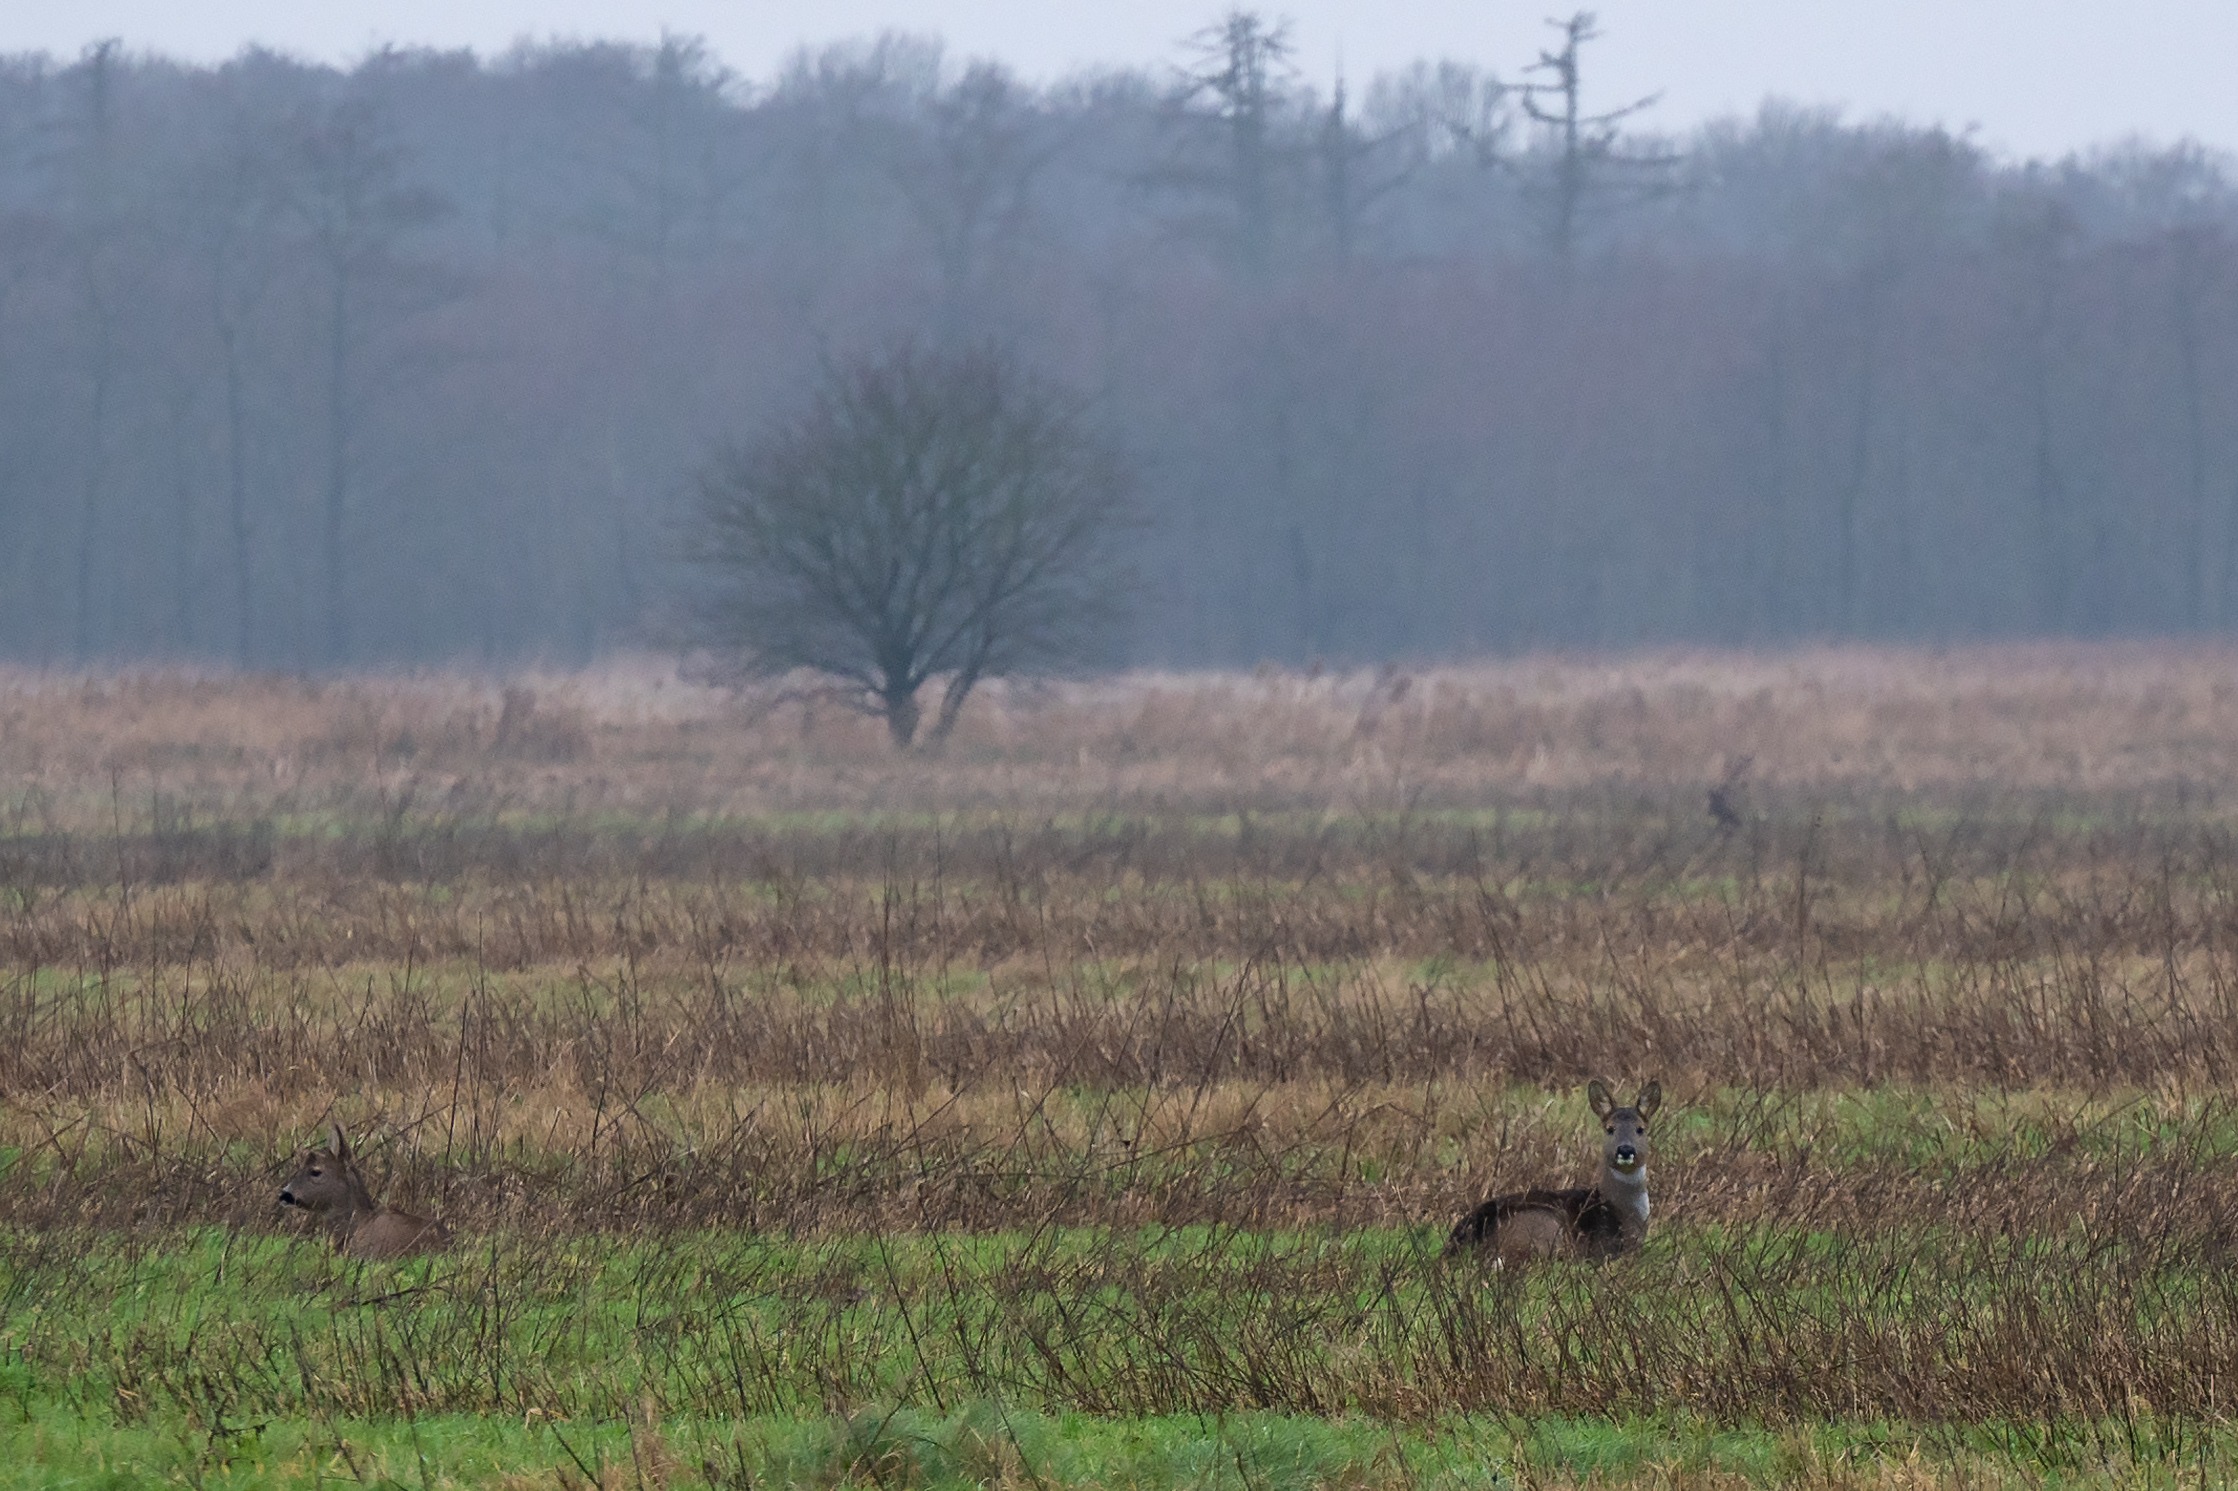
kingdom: Animalia
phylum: Chordata
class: Mammalia
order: Artiodactyla
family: Cervidae
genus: Capreolus
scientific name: Capreolus capreolus
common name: Rådyr
